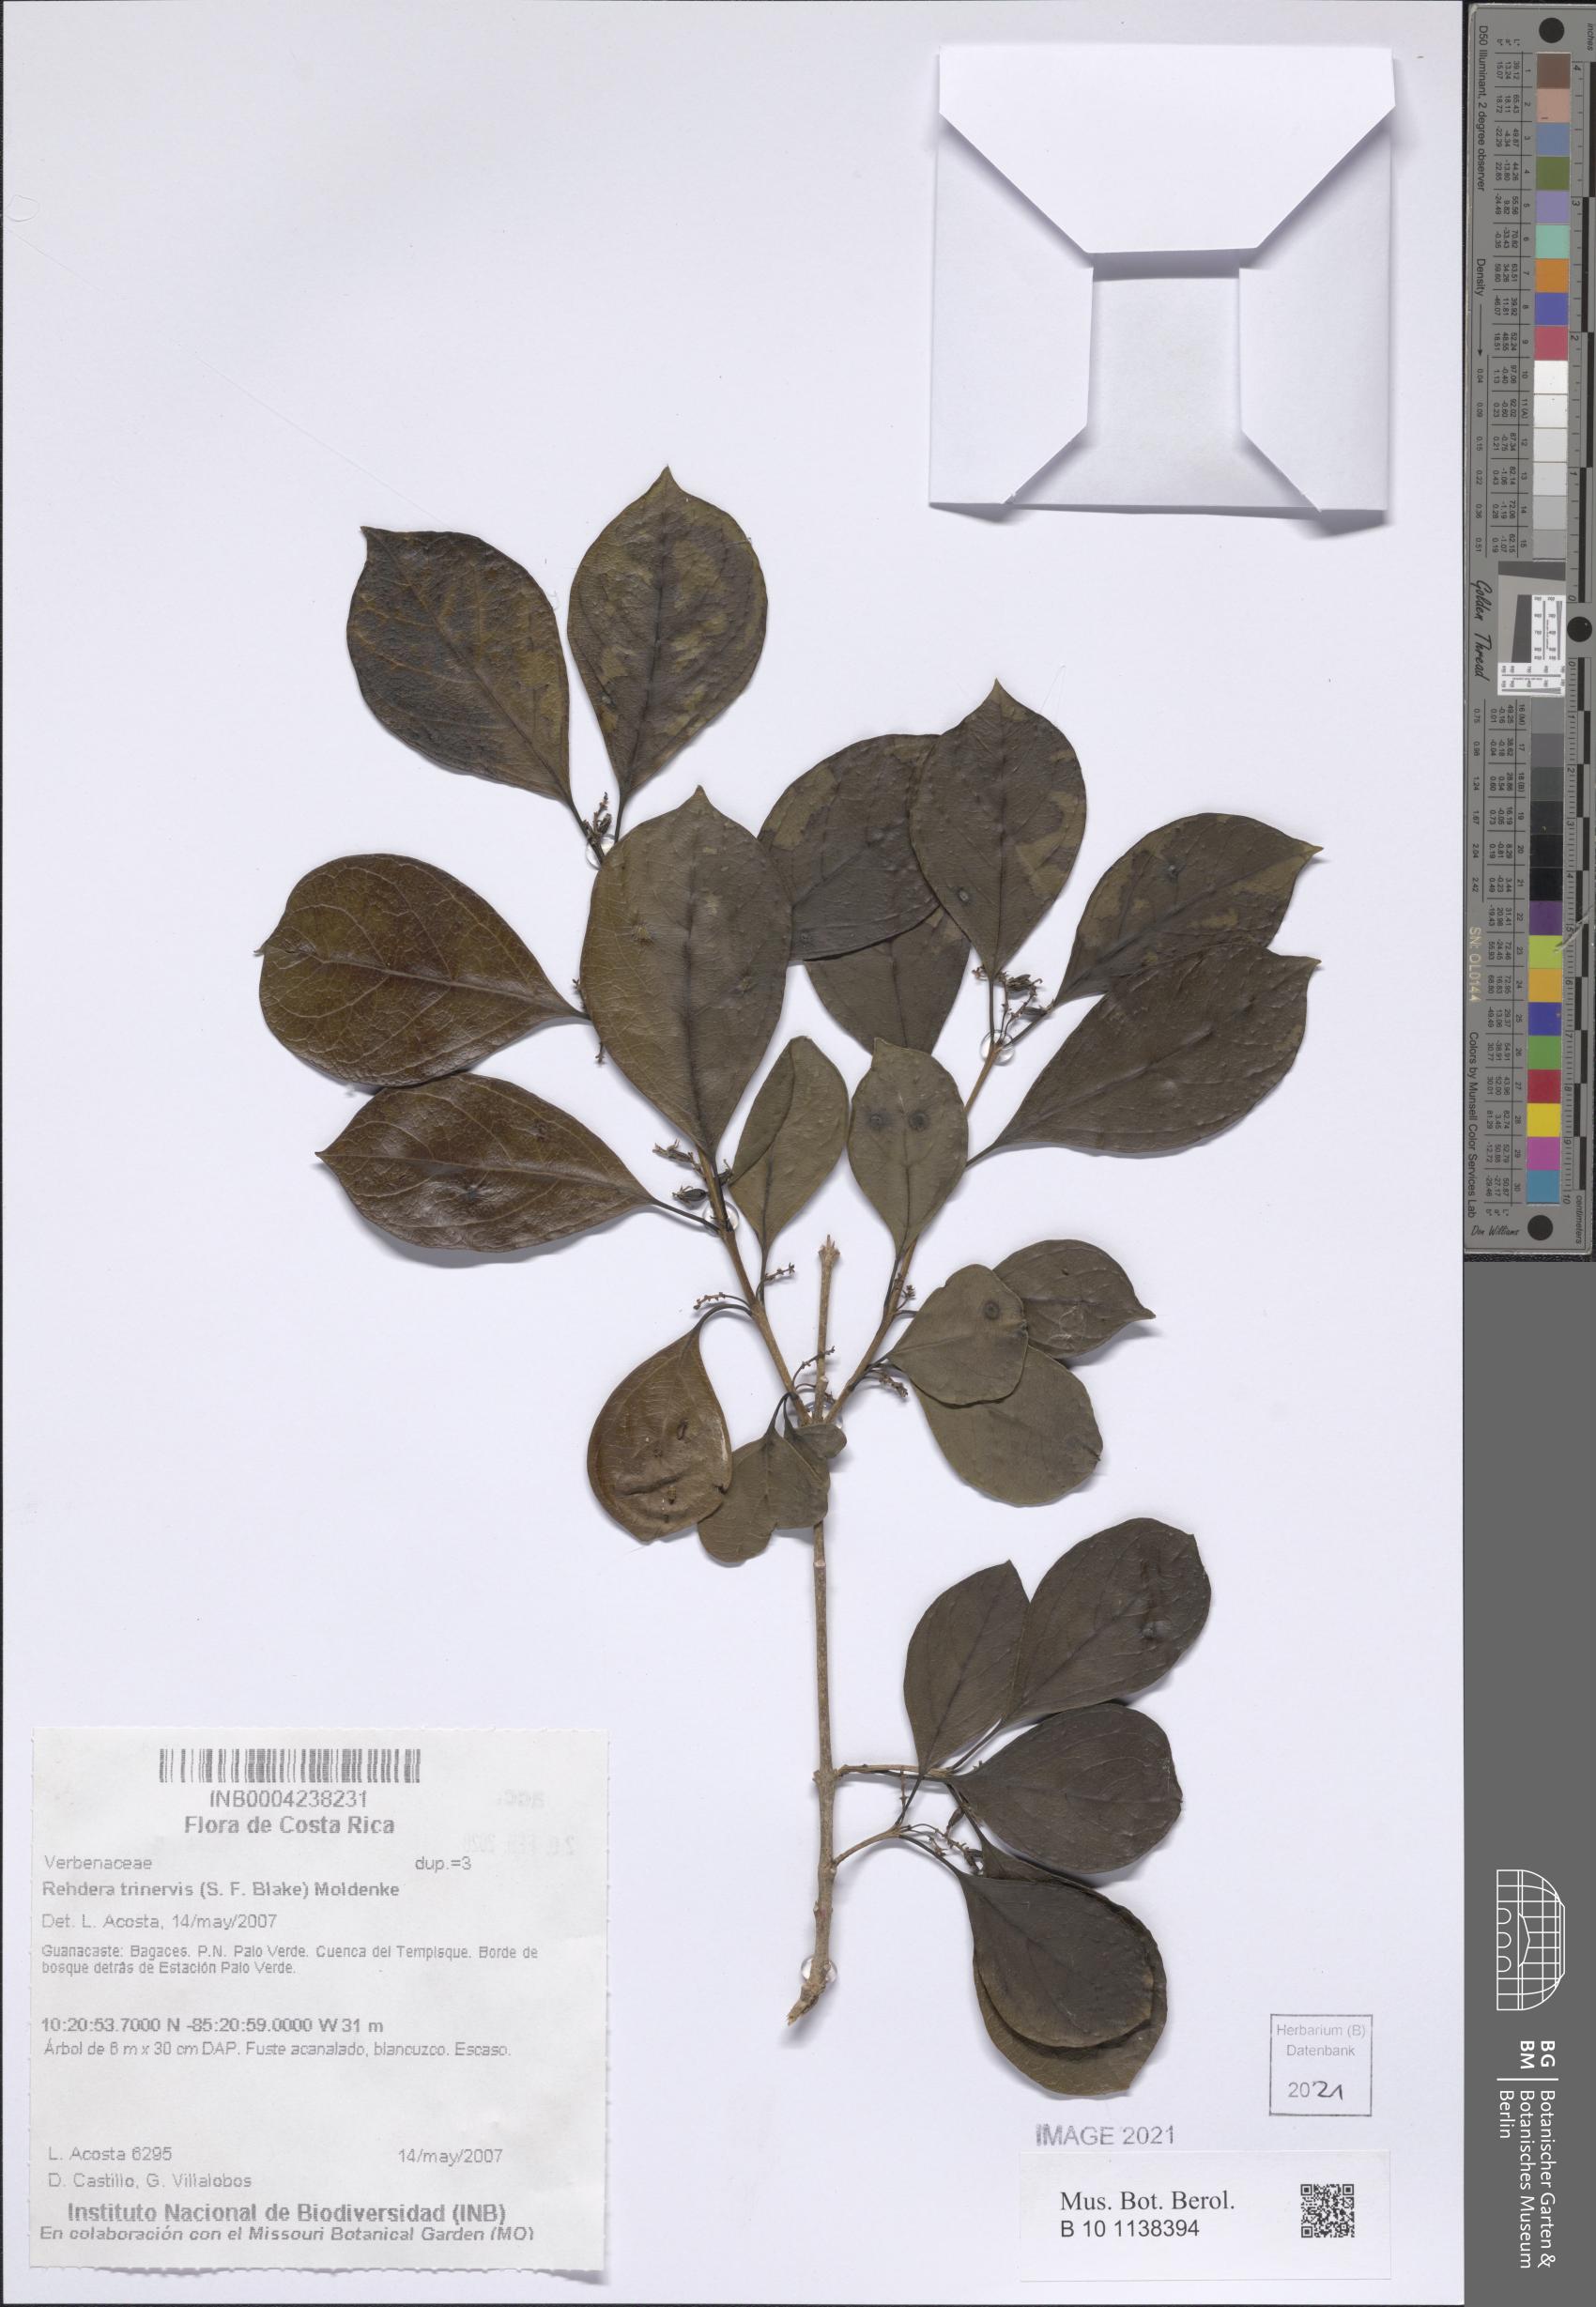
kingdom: Plantae
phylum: Tracheophyta
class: Magnoliopsida
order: Lamiales
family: Verbenaceae
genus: Rehdera
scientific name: Rehdera trinervis
